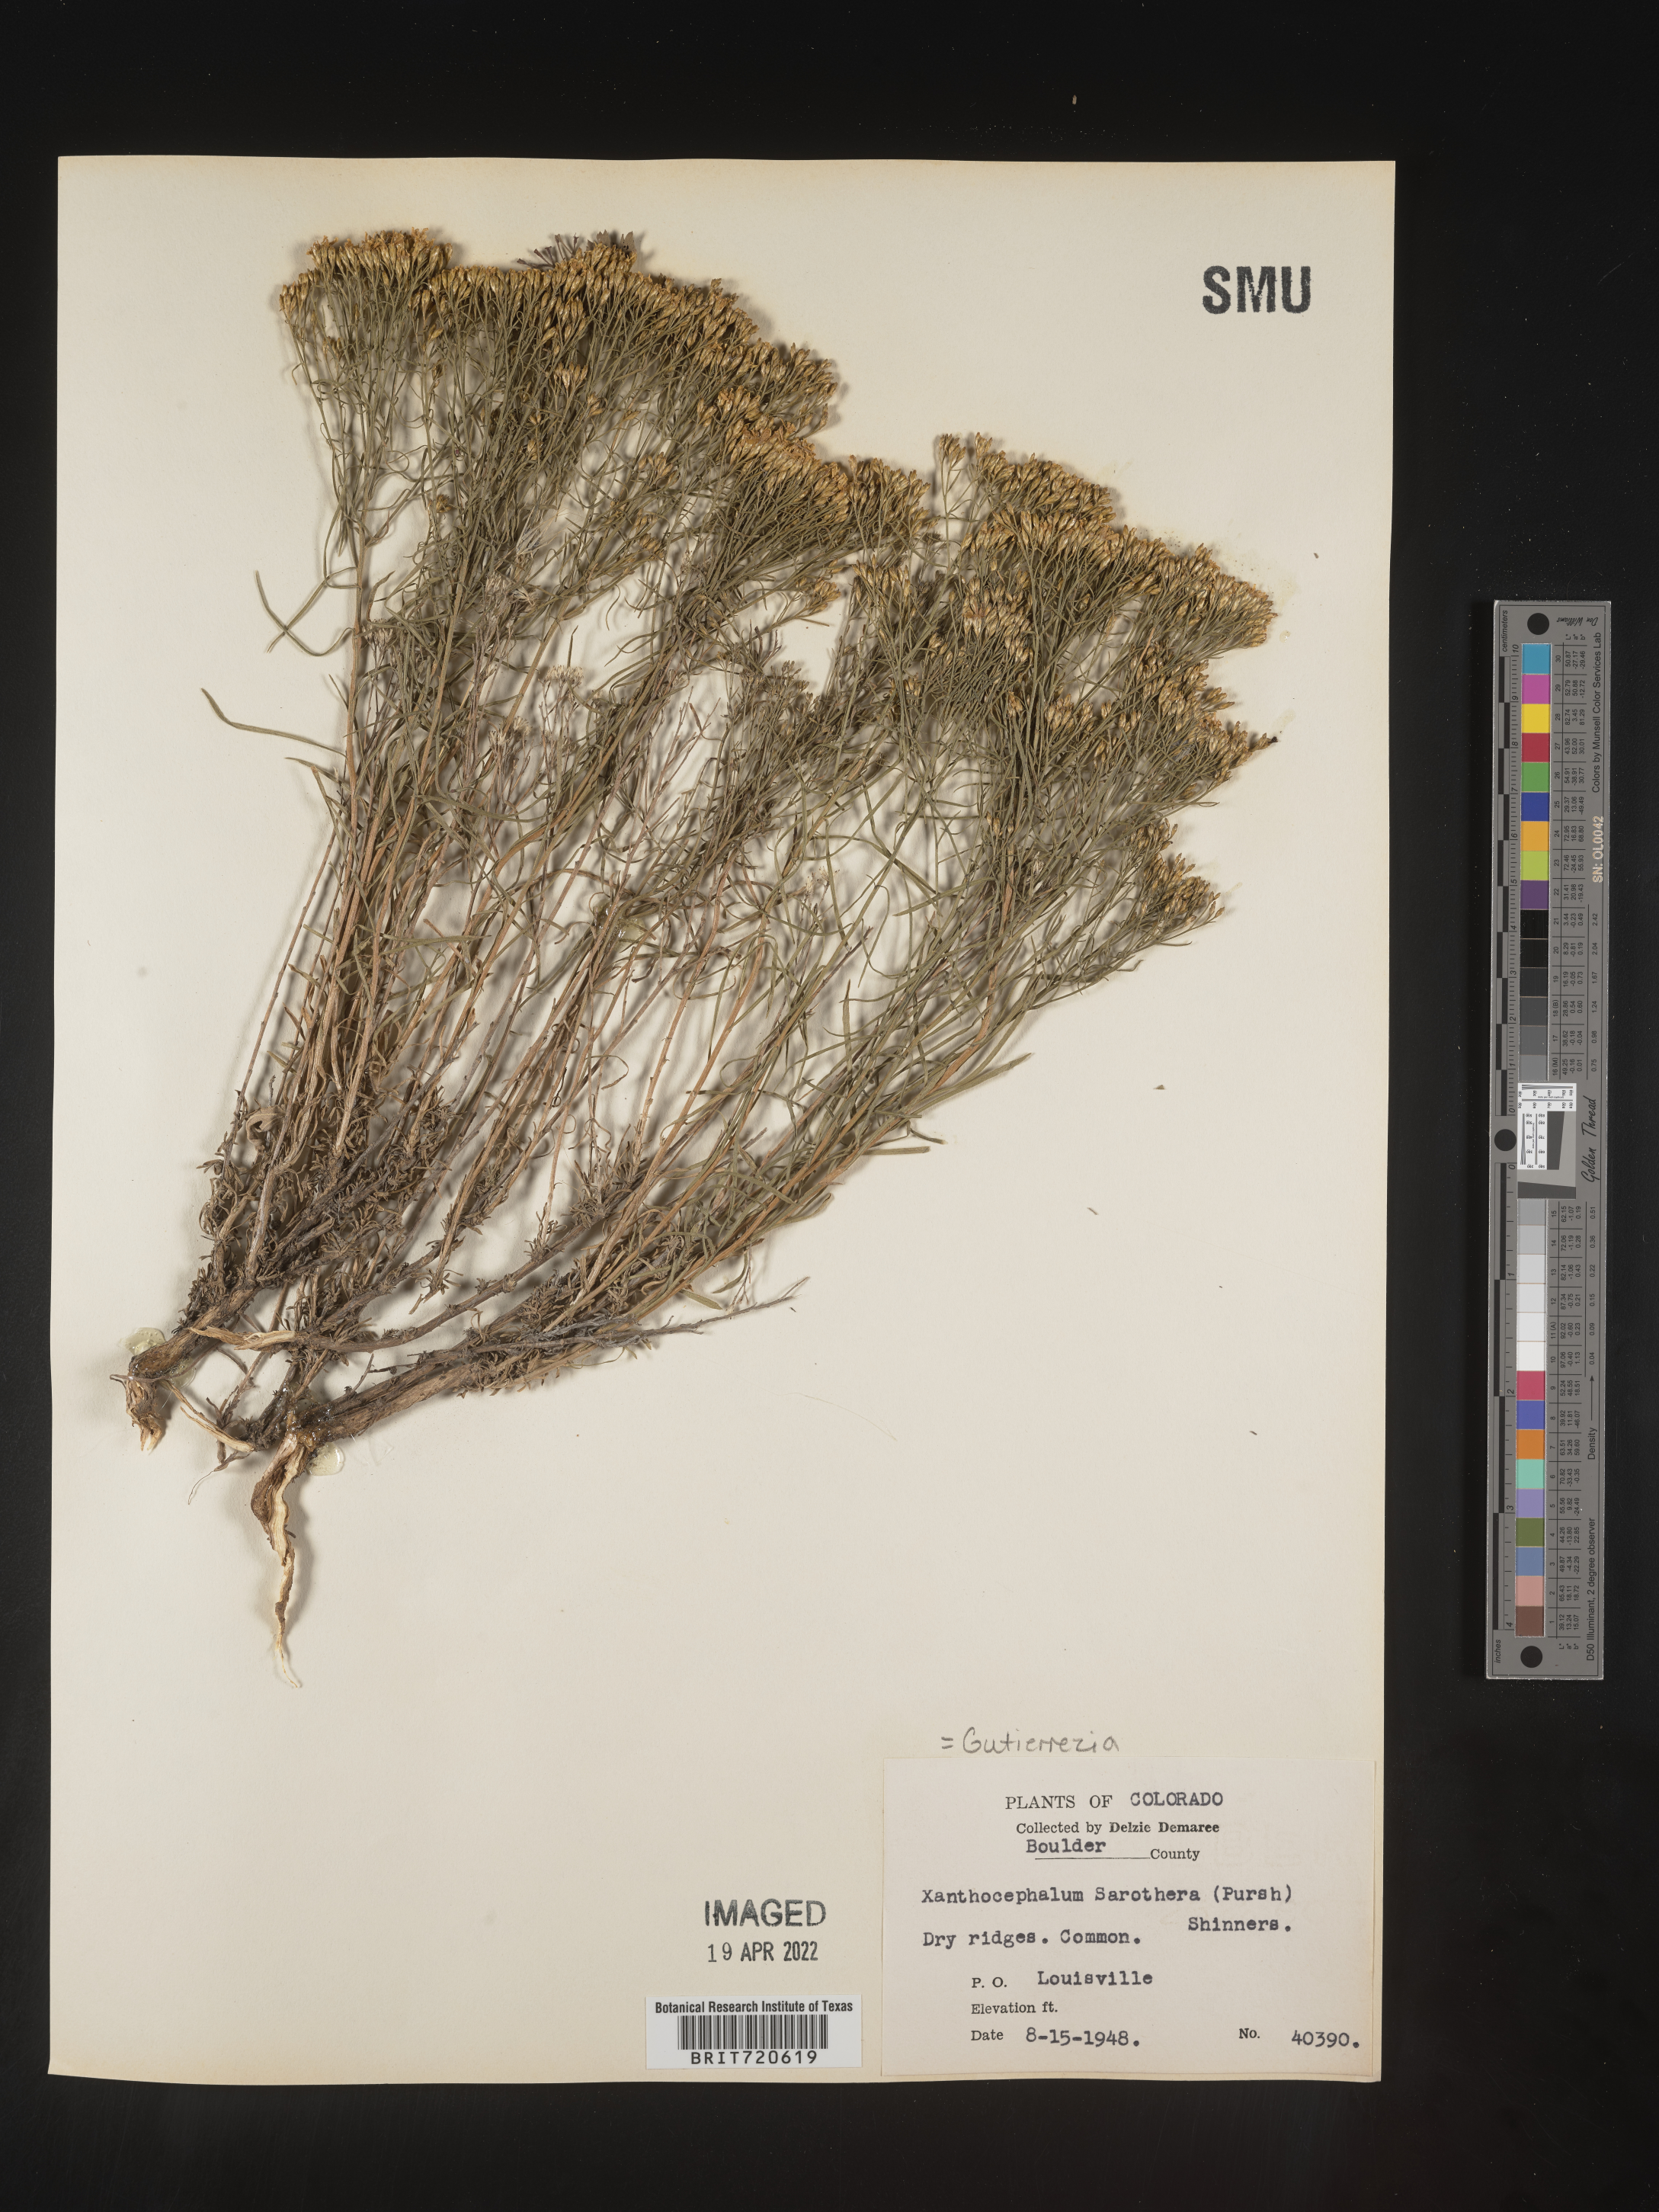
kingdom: Plantae
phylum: Tracheophyta
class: Magnoliopsida
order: Asterales
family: Asteraceae
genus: Gutierrezia
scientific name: Gutierrezia sarothrae
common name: Broom snakeweed
